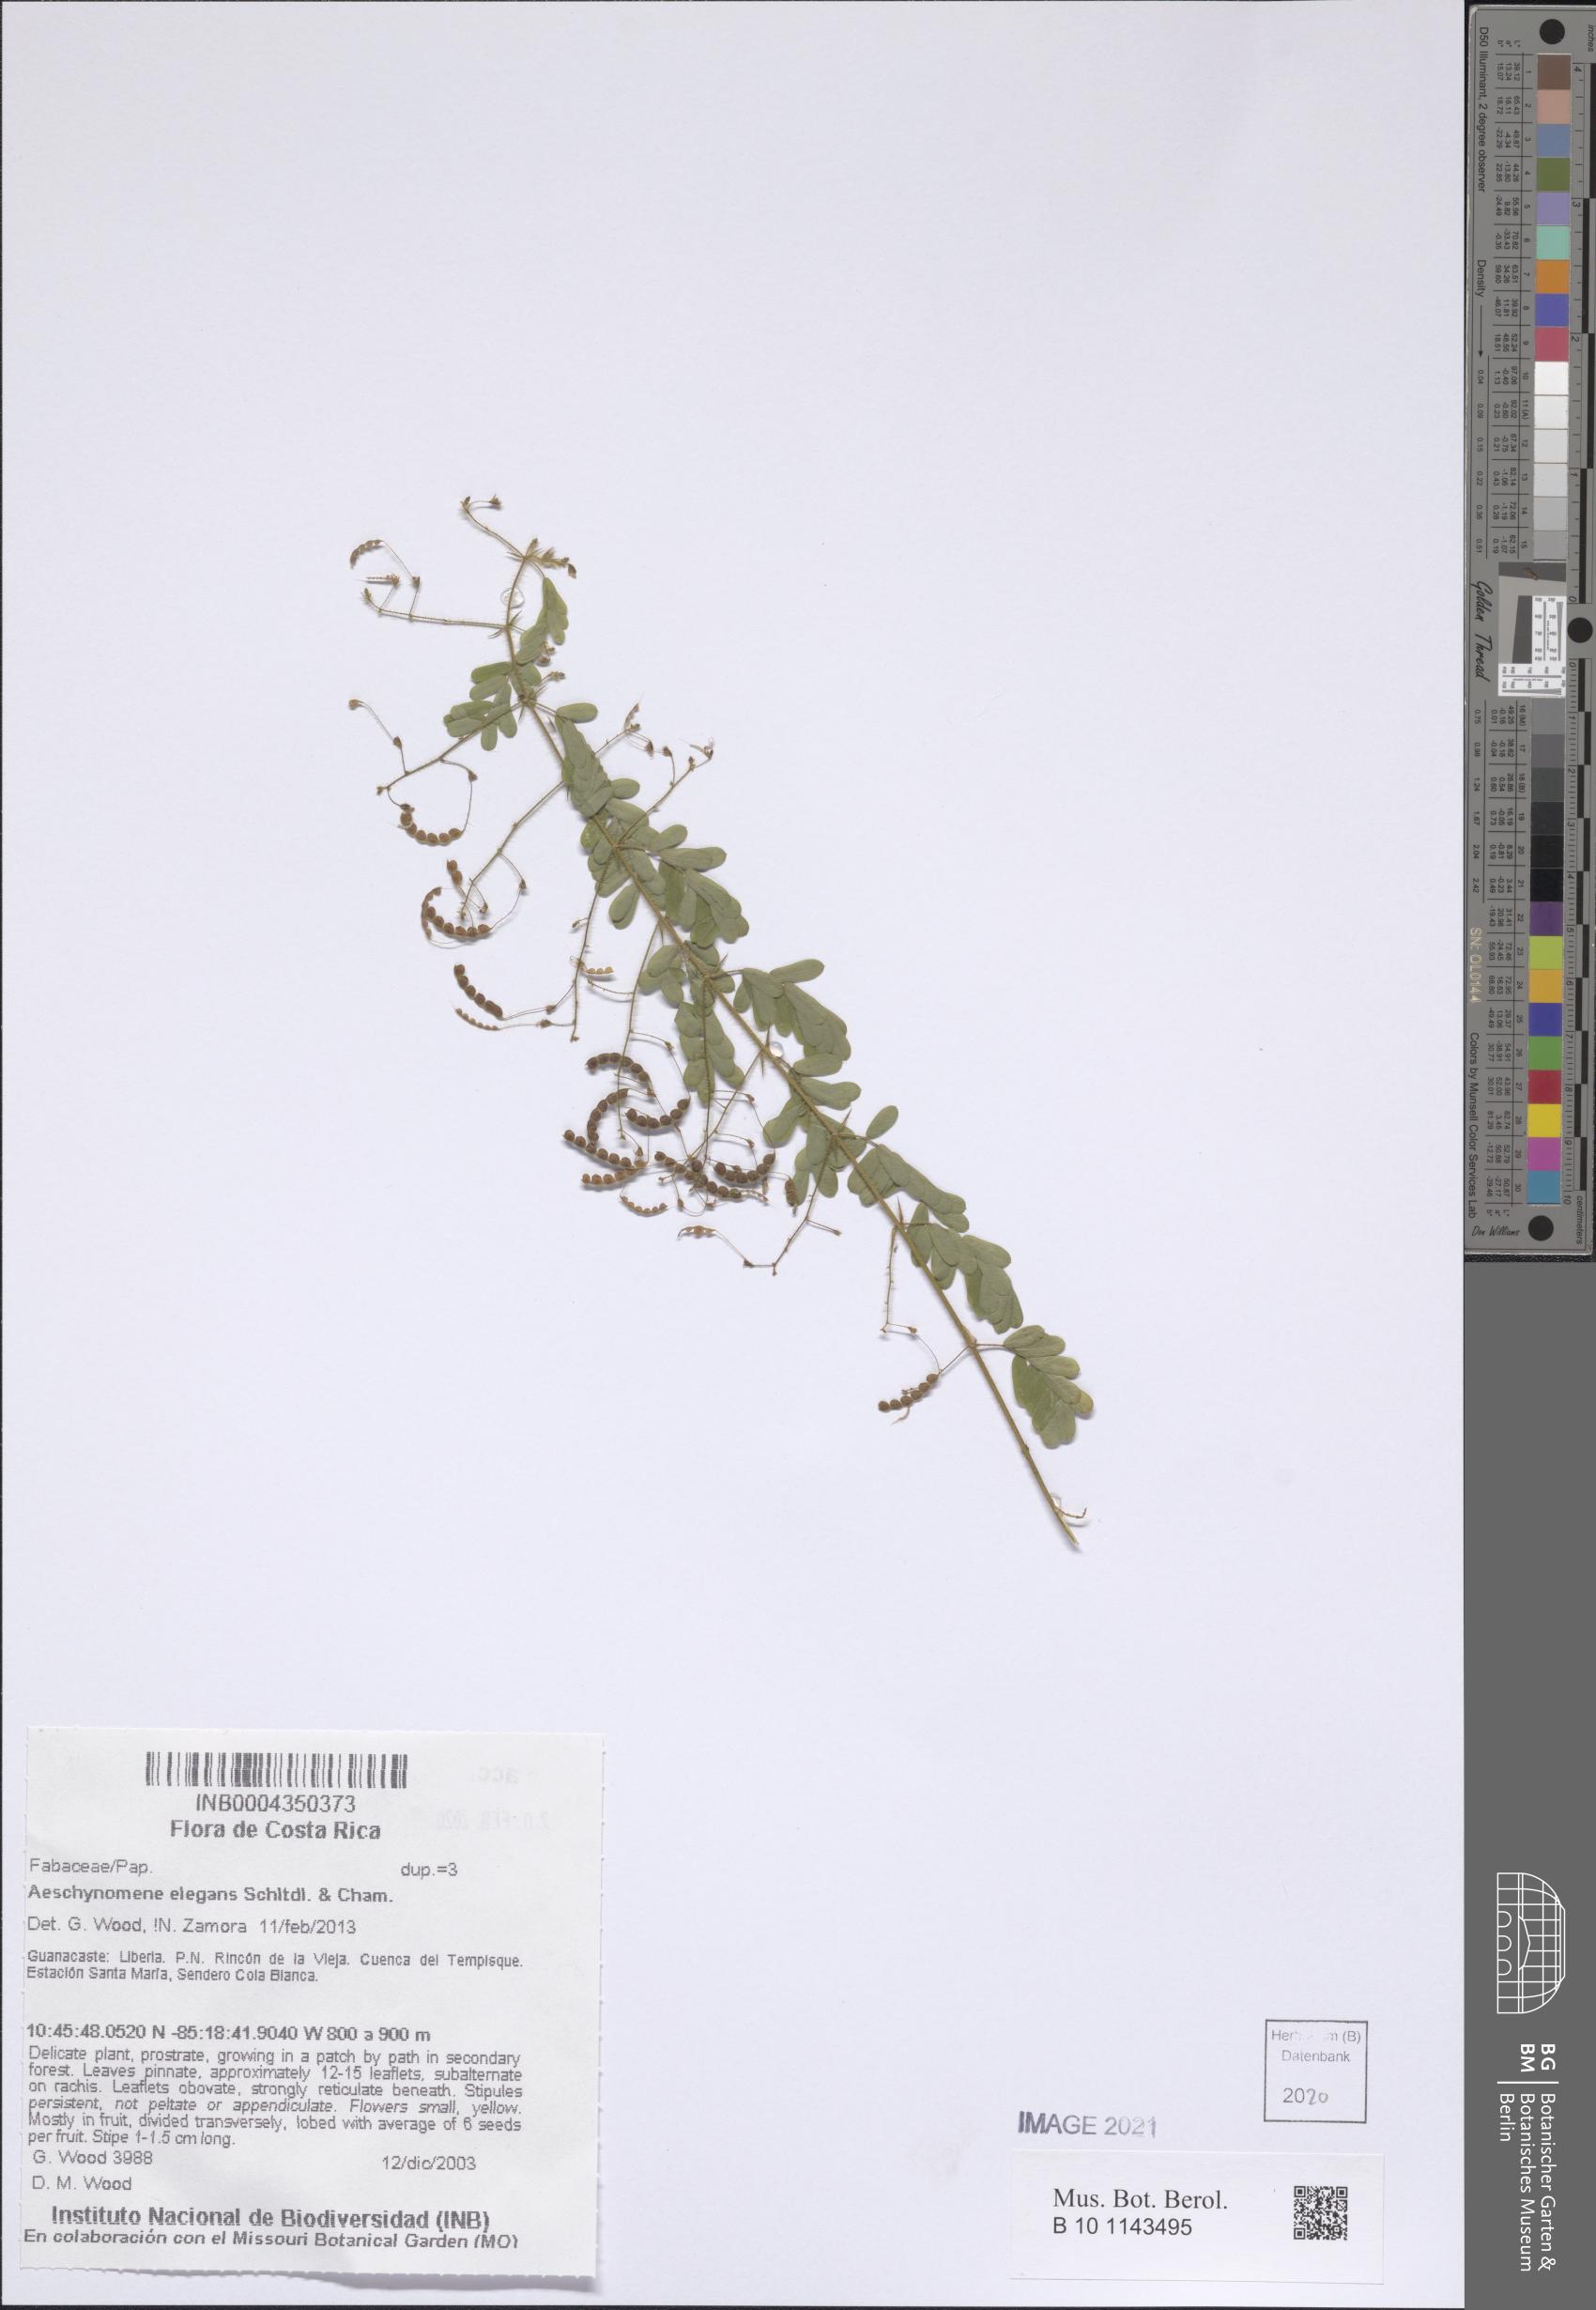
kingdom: Plantae
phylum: Tracheophyta
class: Magnoliopsida
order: Fabales
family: Fabaceae
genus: Ctenodon
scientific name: Ctenodon elegans
